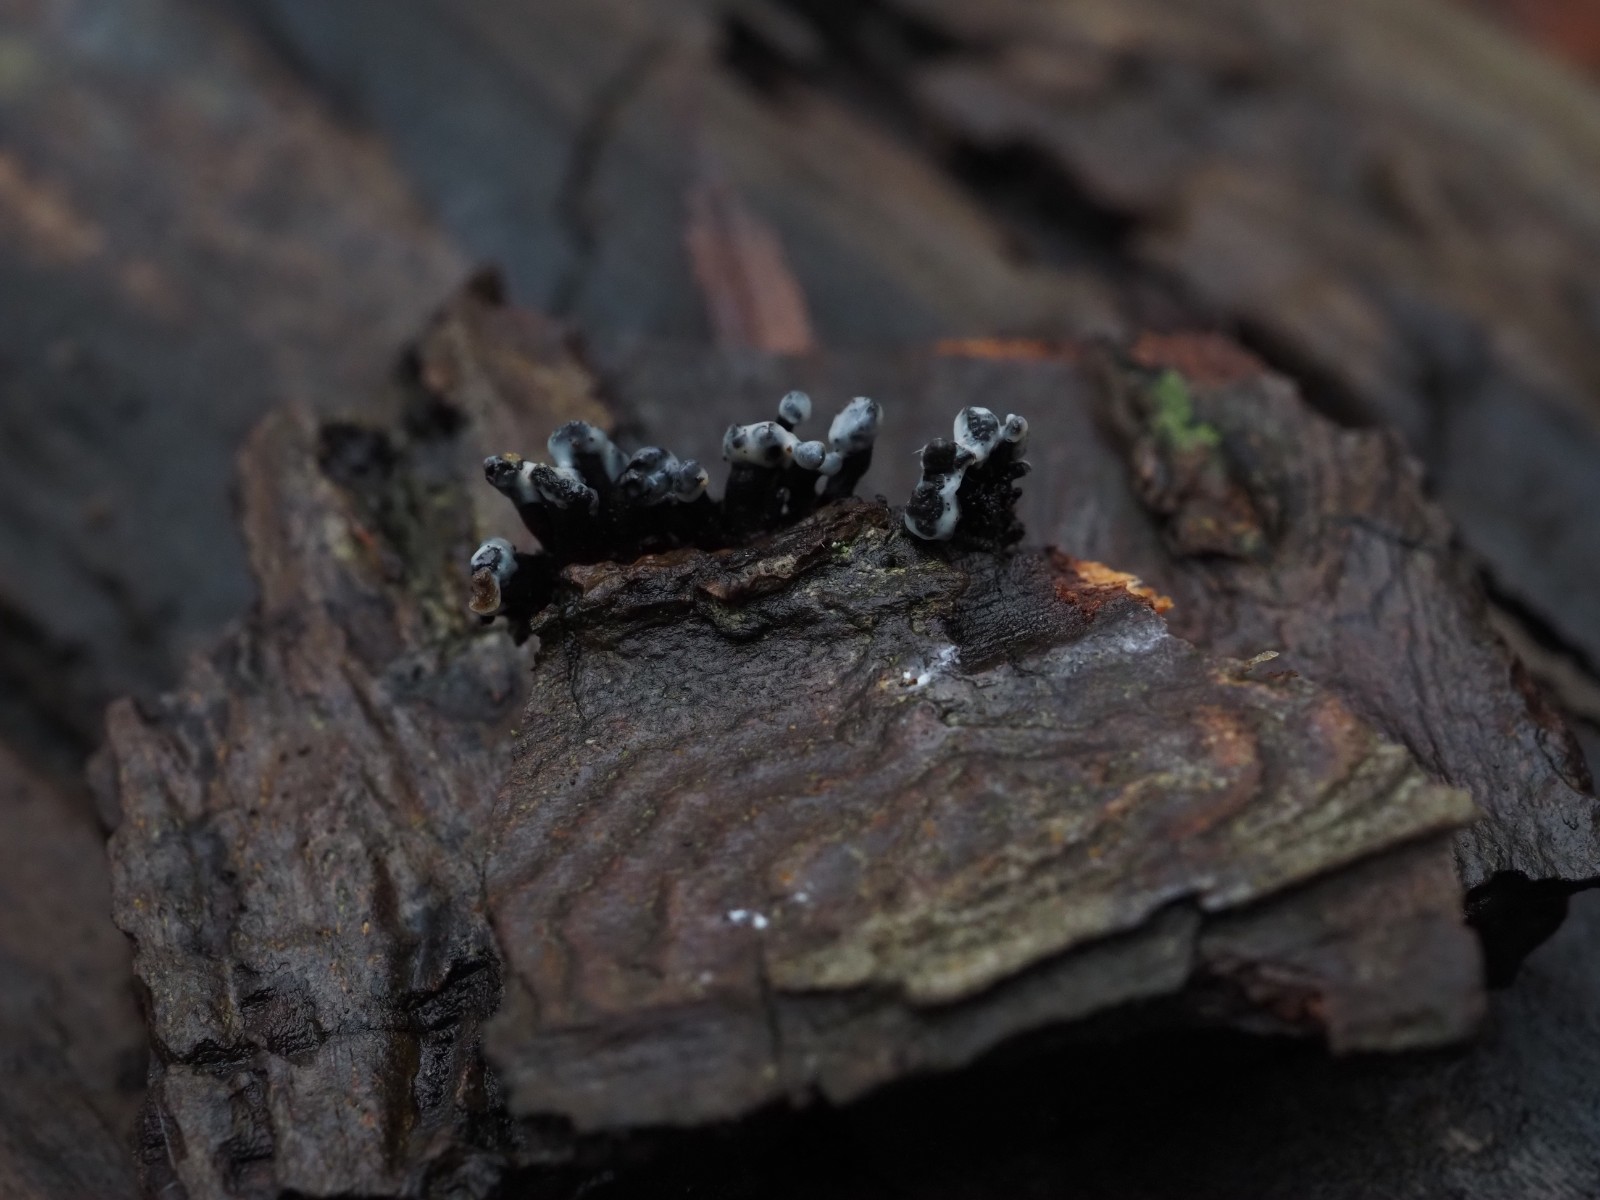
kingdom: Fungi
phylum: Ascomycota
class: Leotiomycetes
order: Helotiales
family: Bulgariaceae
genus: Holwaya
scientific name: Holwaya mucida
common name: lindeskive
